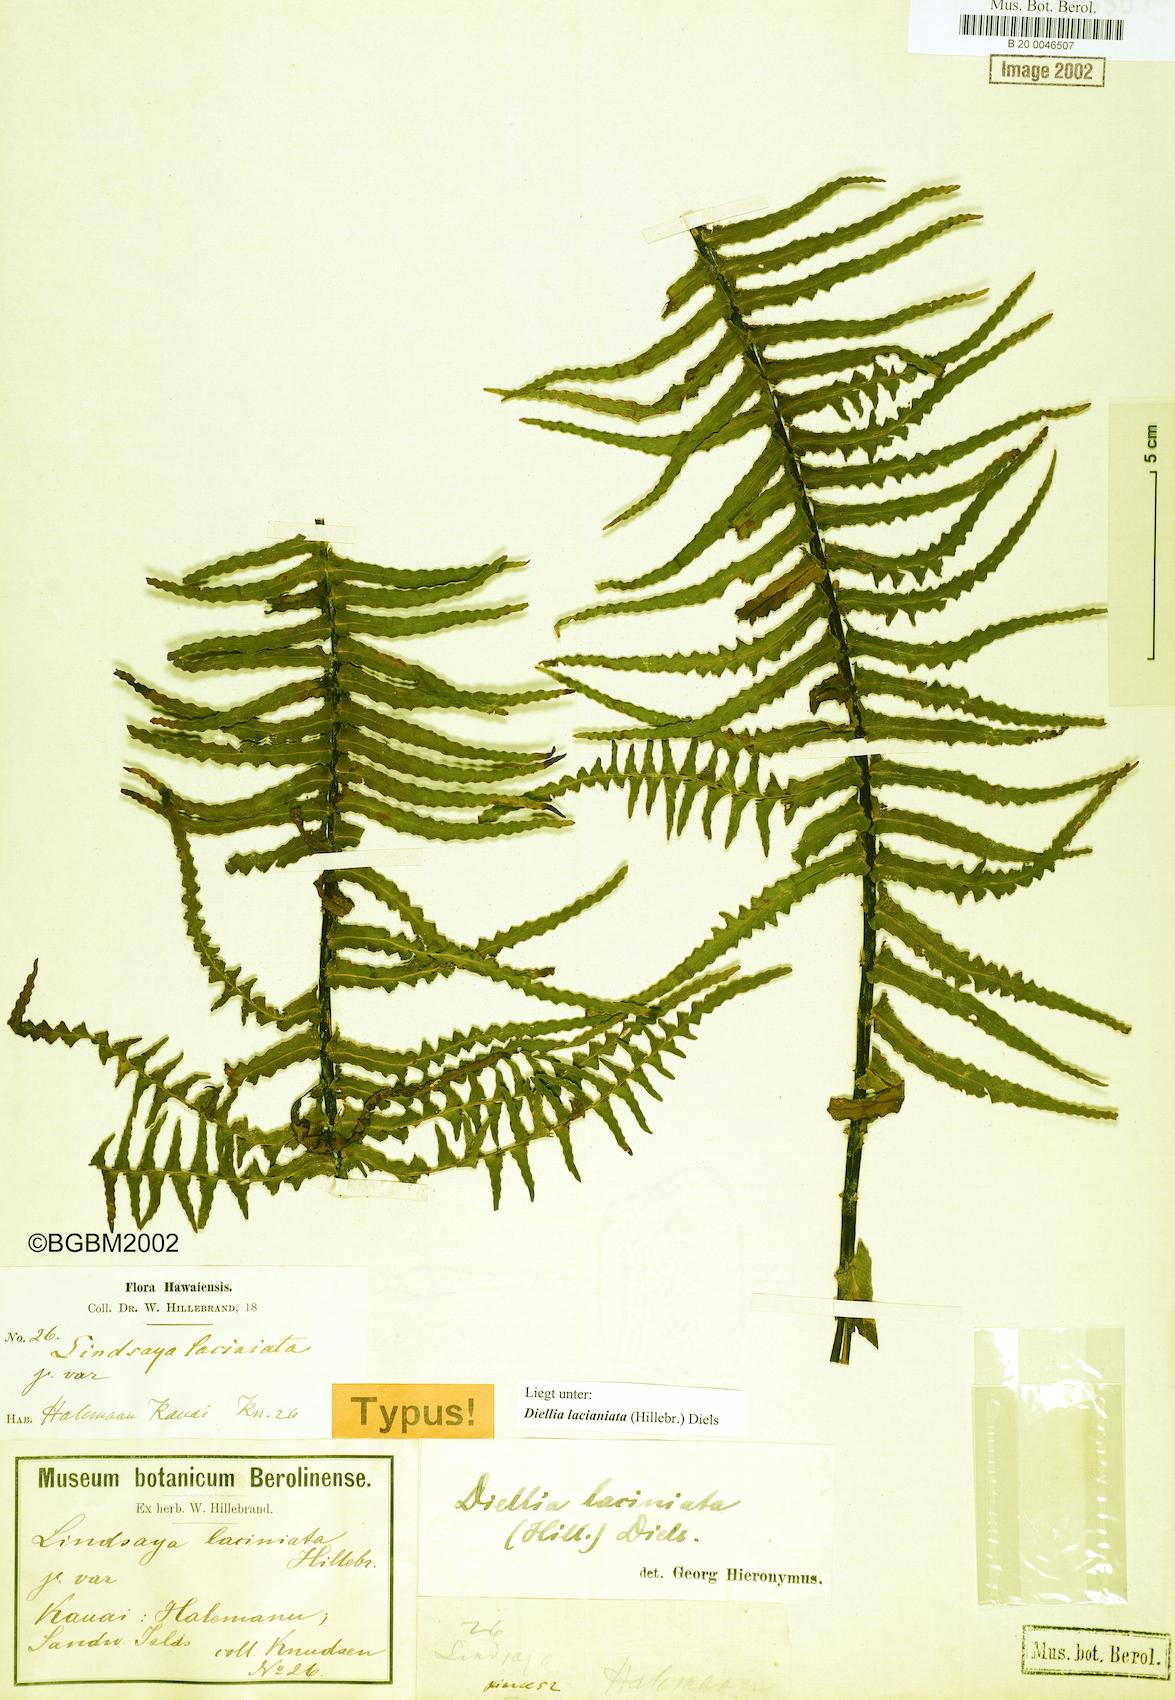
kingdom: Plantae
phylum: Tracheophyta
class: Polypodiopsida
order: Polypodiales
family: Aspleniaceae
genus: Asplenium
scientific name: Asplenium diellaciniatum
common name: Cutleaf island spleenwort
